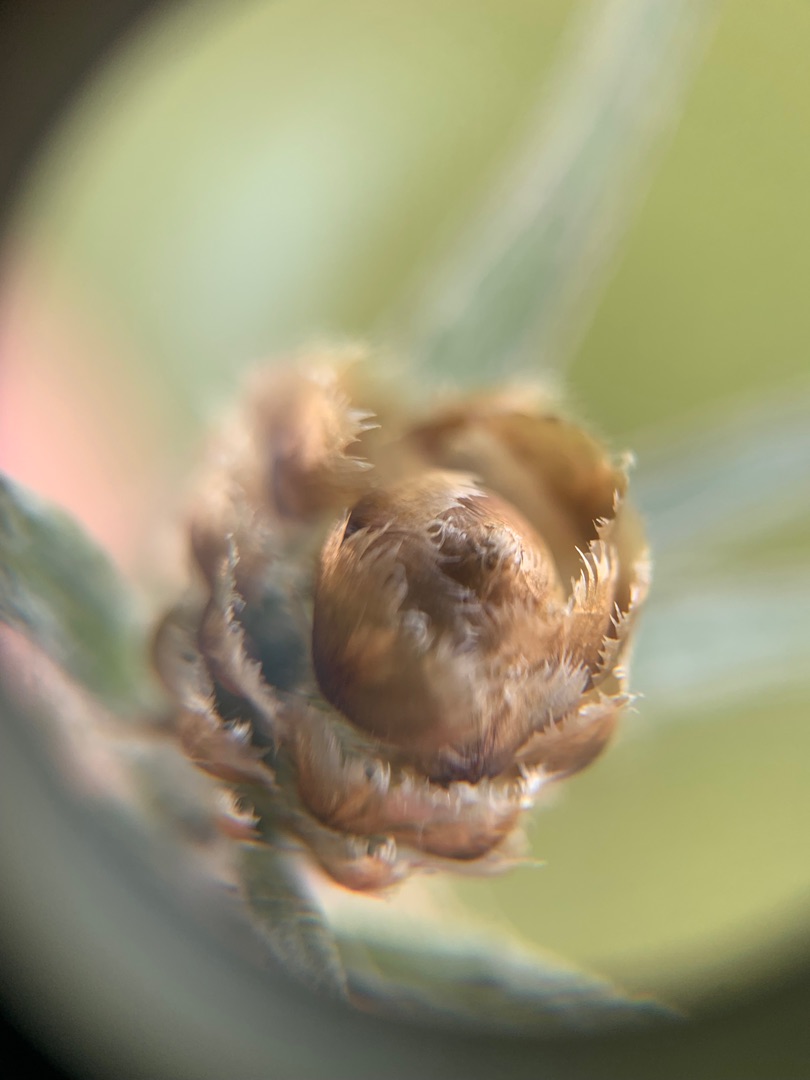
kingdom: Plantae
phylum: Tracheophyta
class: Magnoliopsida
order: Asterales
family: Asteraceae
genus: Centaurea
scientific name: Centaurea jacea
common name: Almindelig knopurt
